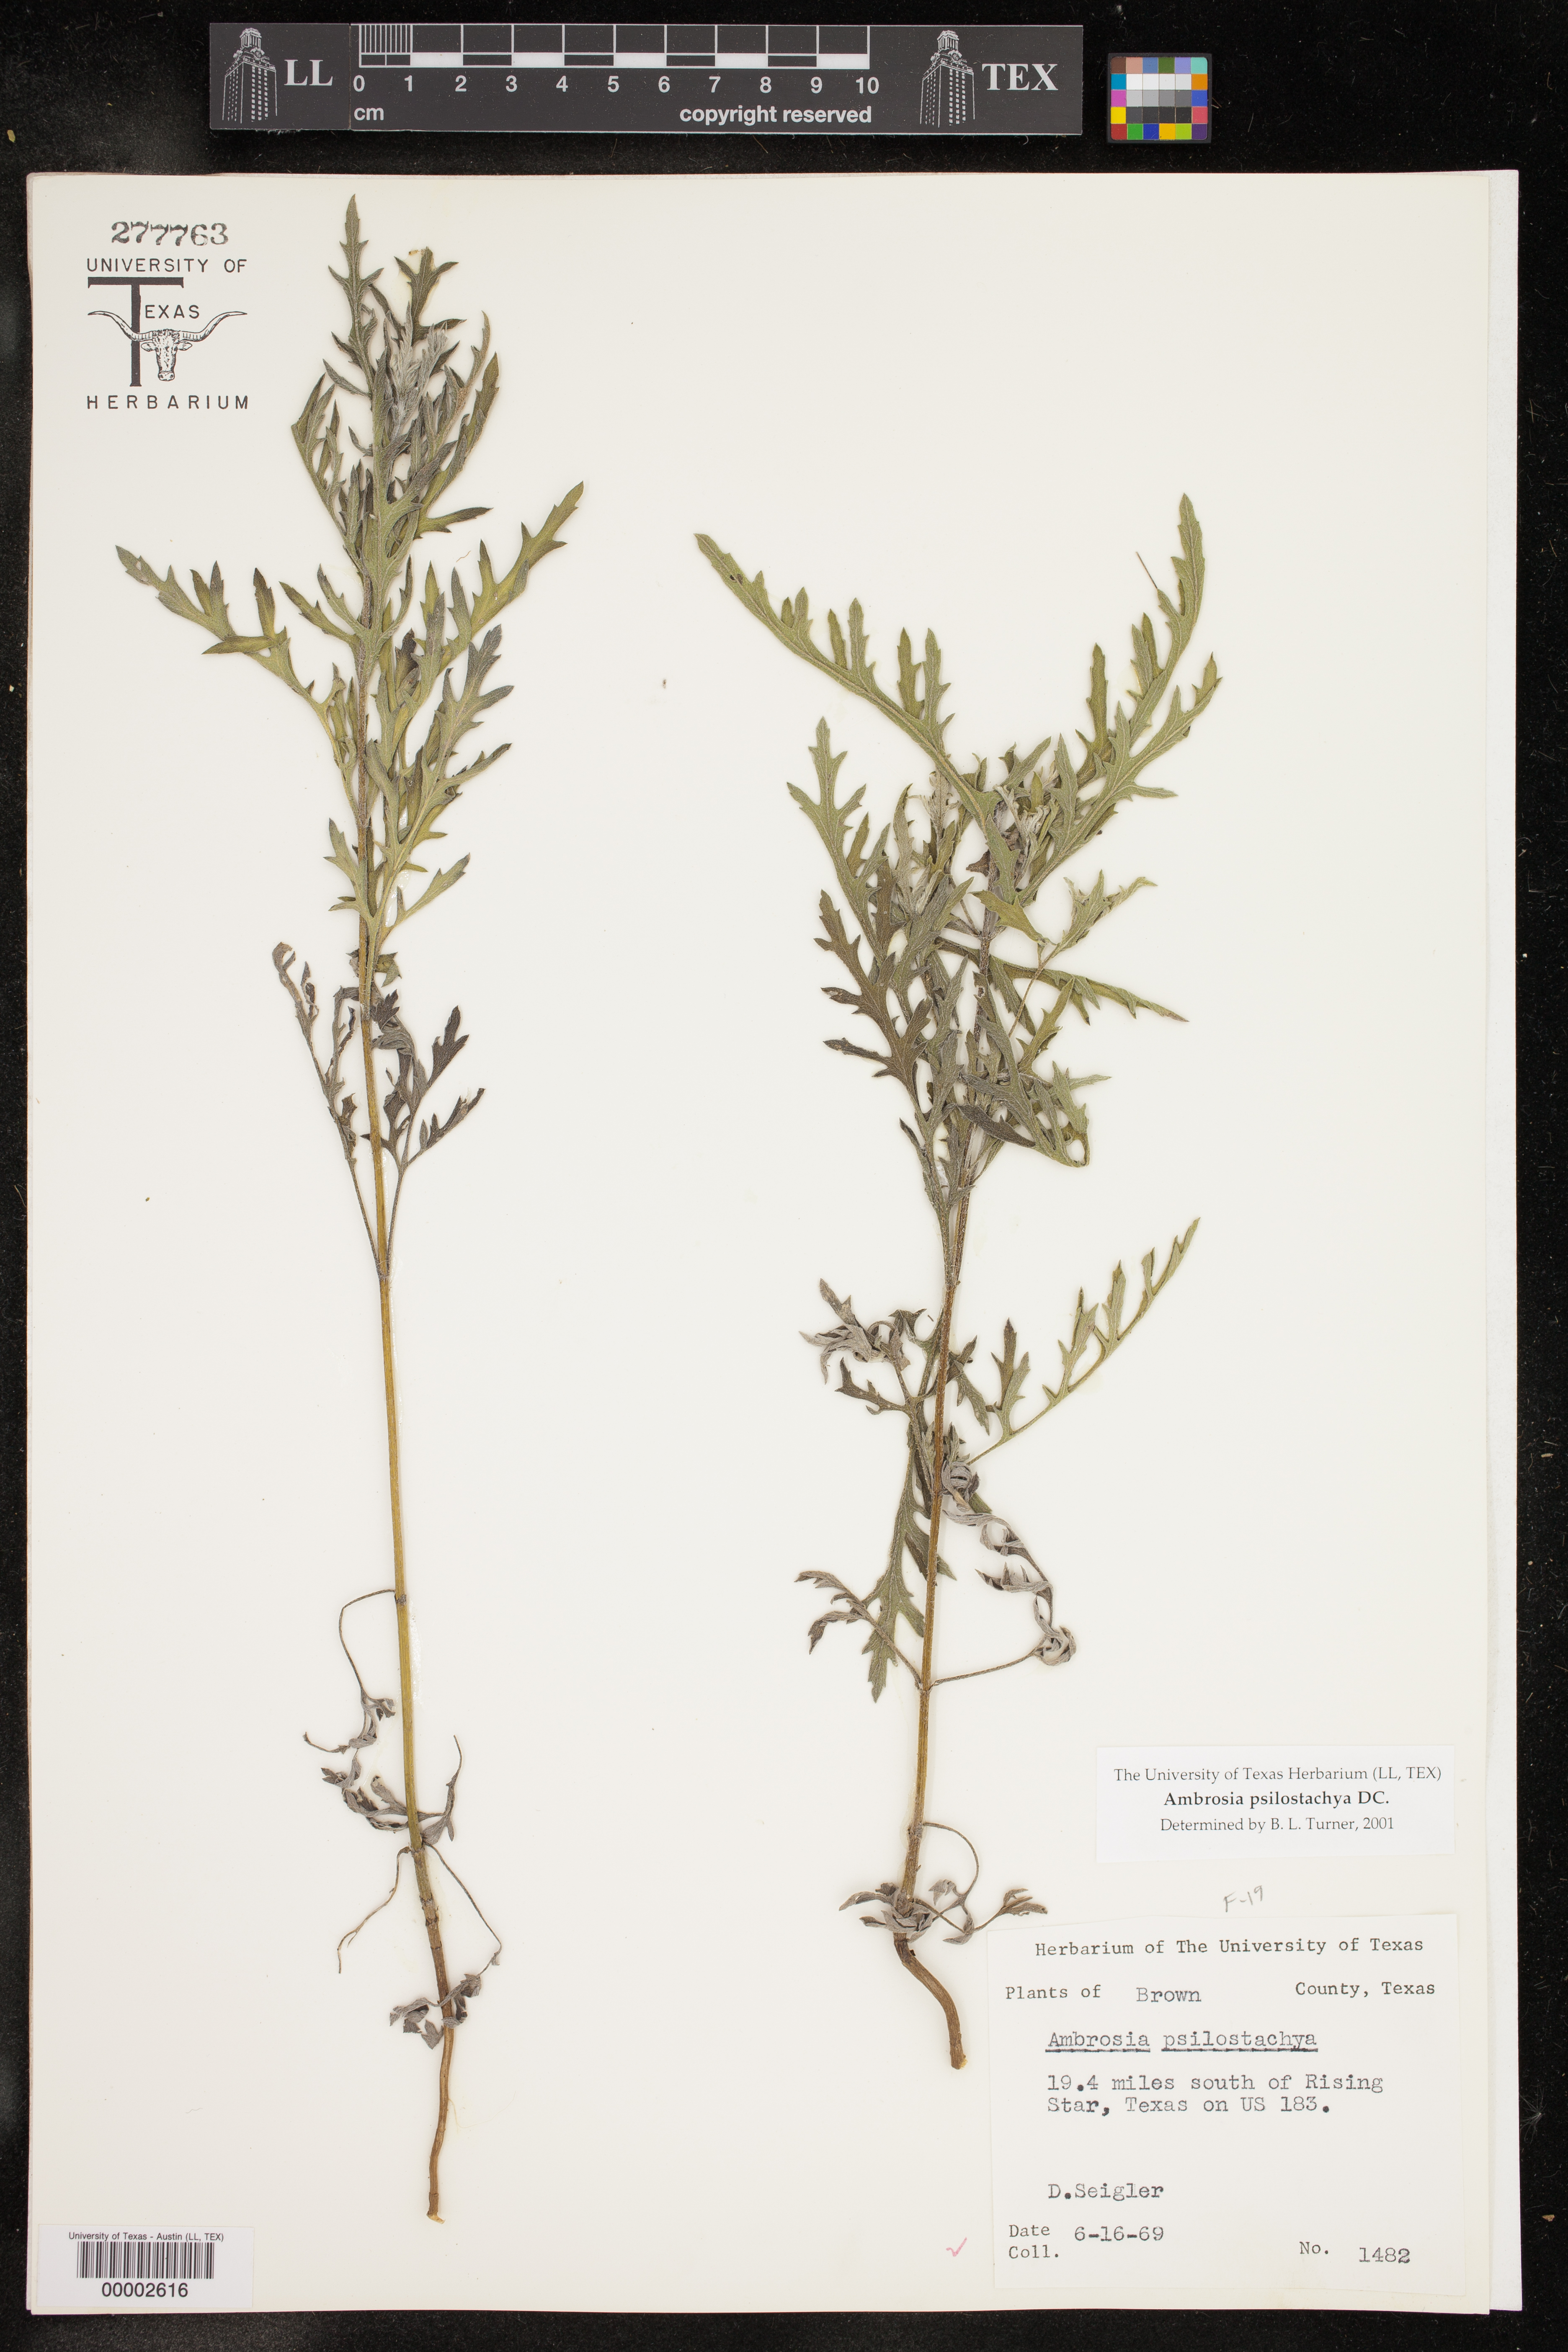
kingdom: Plantae
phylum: Tracheophyta
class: Magnoliopsida
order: Asterales
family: Asteraceae
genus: Ambrosia
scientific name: Ambrosia psilostachya
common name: Perennial ragweed
